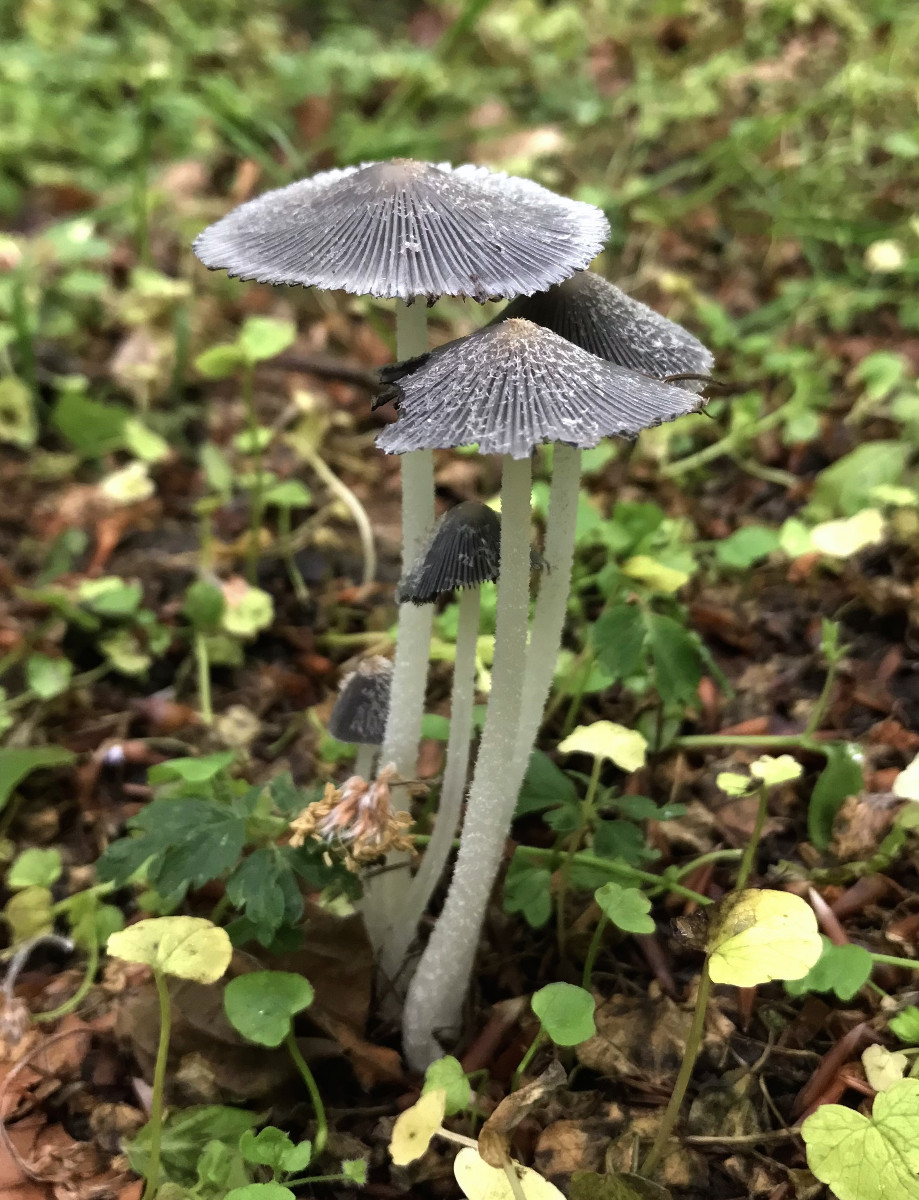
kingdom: Fungi
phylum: Basidiomycota
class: Agaricomycetes
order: Agaricales
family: Psathyrellaceae
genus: Coprinopsis
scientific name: Coprinopsis lagopus
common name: dunstokket blækhat
